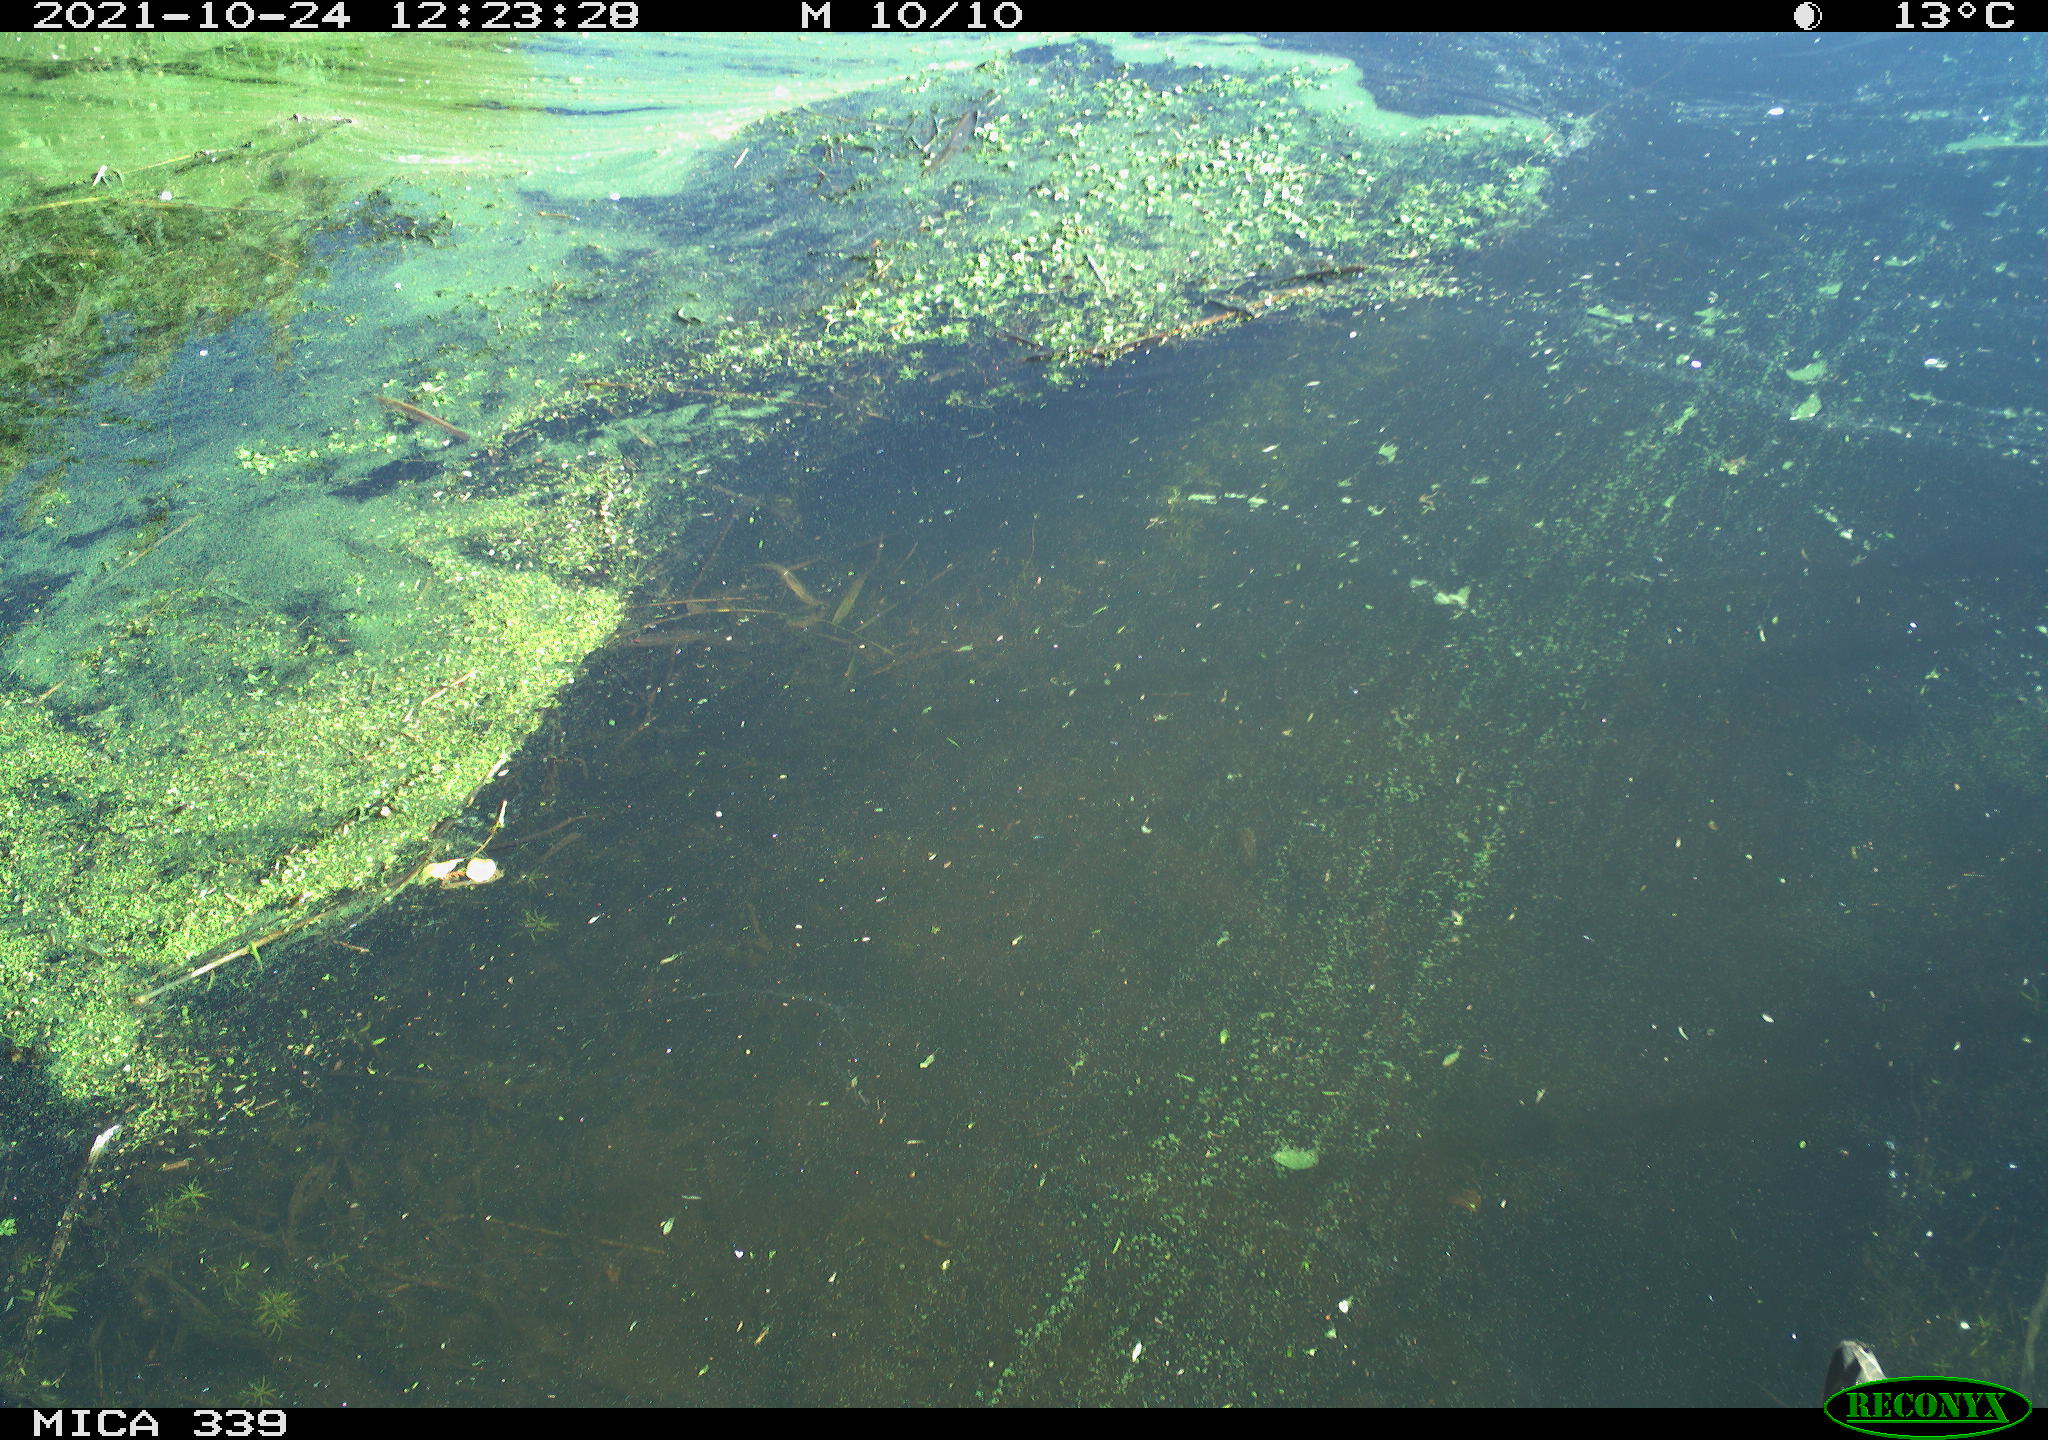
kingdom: Animalia
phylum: Chordata
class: Aves
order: Gruiformes
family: Rallidae
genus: Gallinula
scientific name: Gallinula chloropus
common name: Common moorhen
